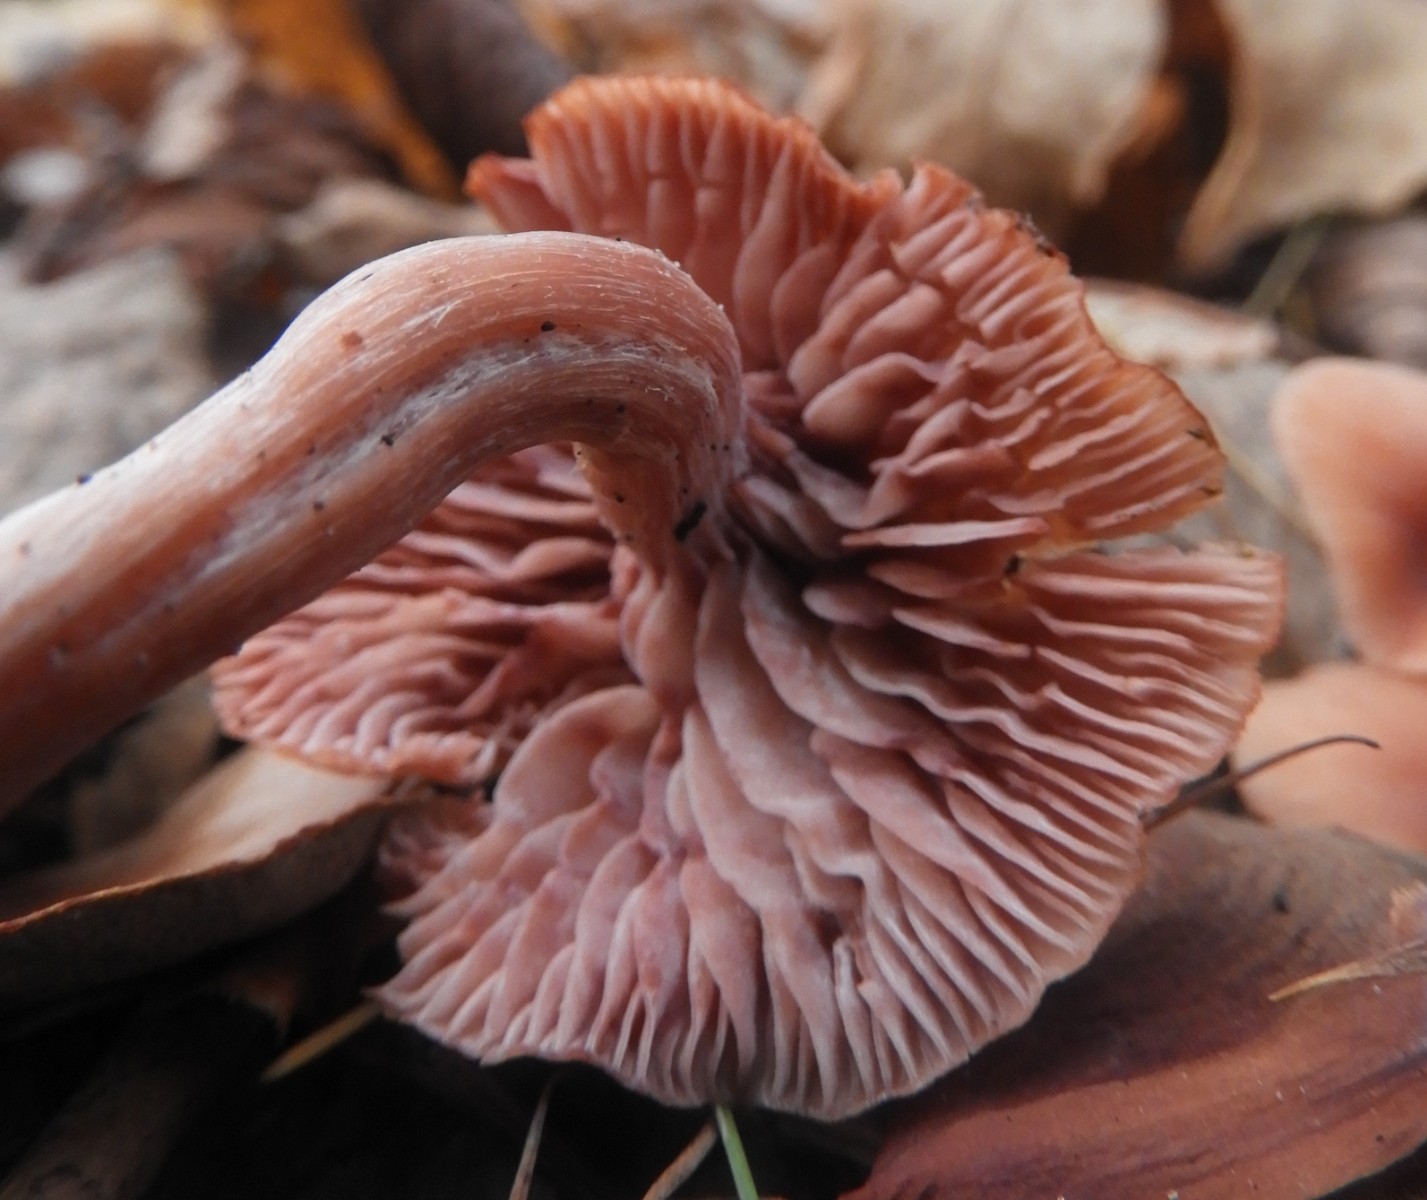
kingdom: Fungi
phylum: Basidiomycota
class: Agaricomycetes
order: Agaricales
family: Hydnangiaceae
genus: Laccaria
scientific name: Laccaria laccata
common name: rød ametysthat
